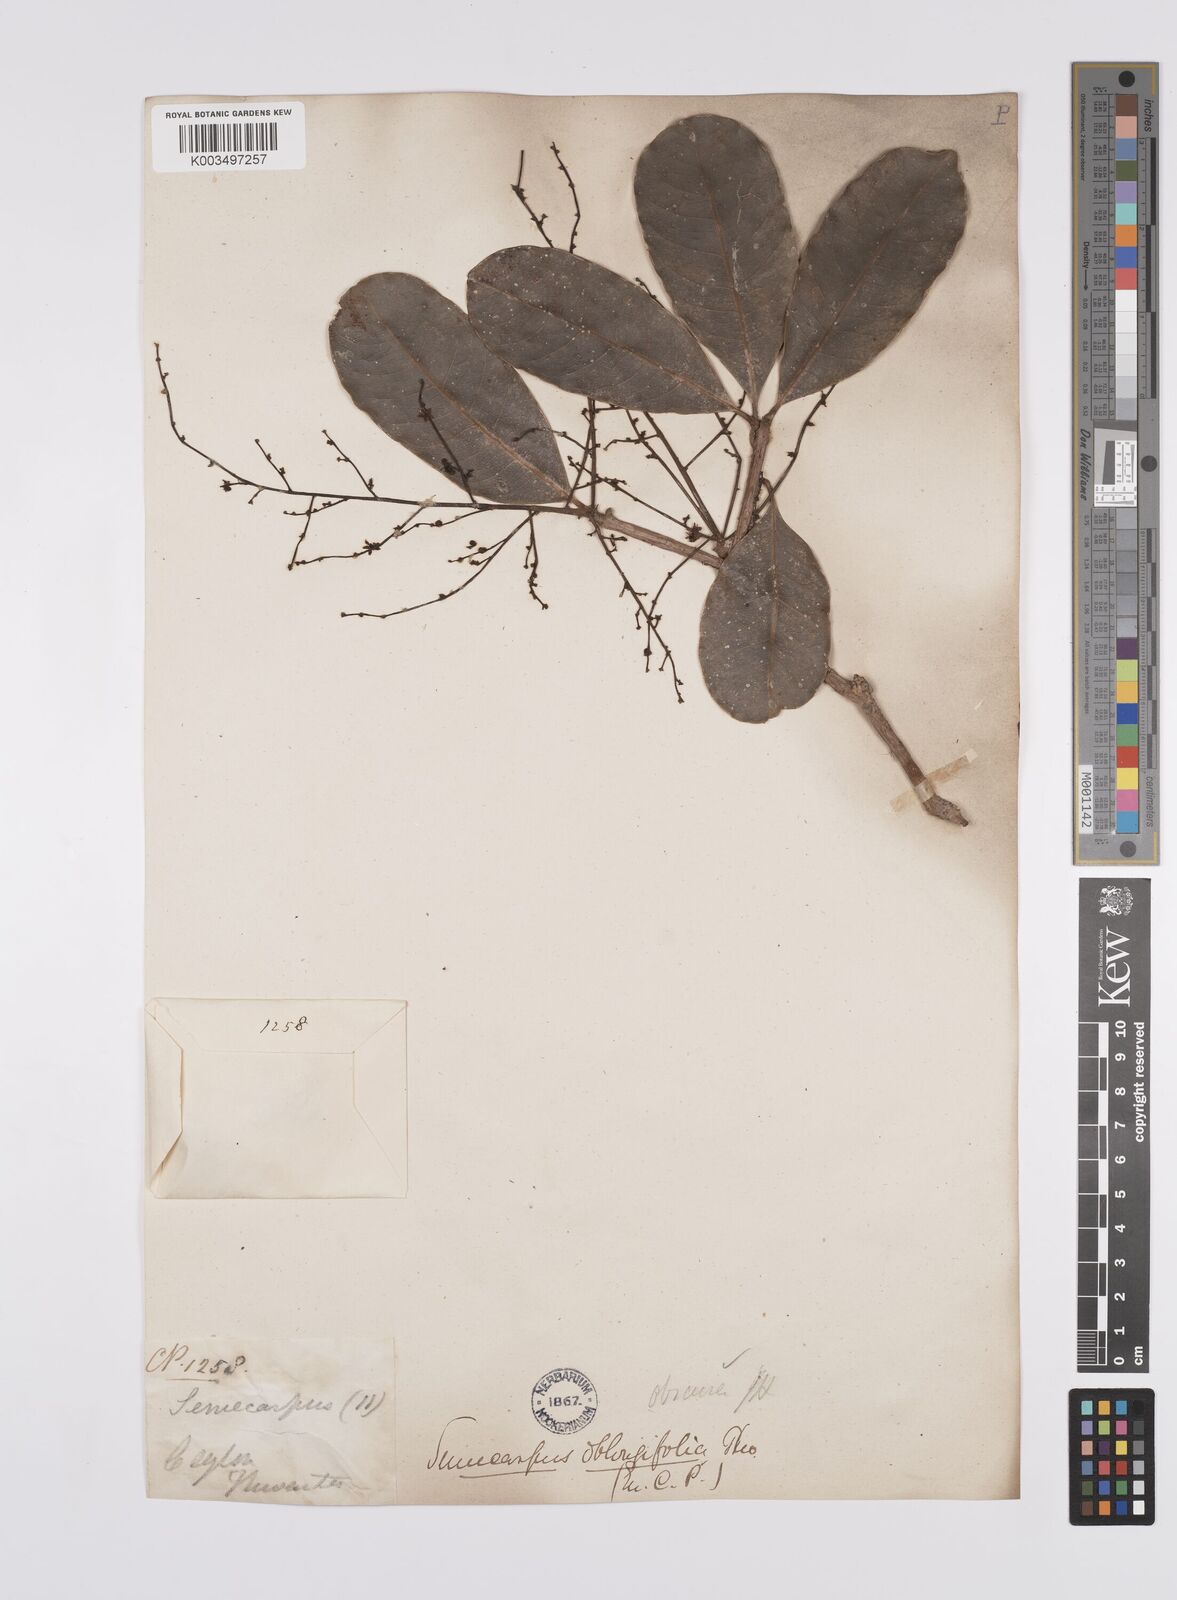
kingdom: Plantae
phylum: Tracheophyta
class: Magnoliopsida
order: Sapindales
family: Anacardiaceae
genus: Semecarpus
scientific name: Semecarpus walkeri
